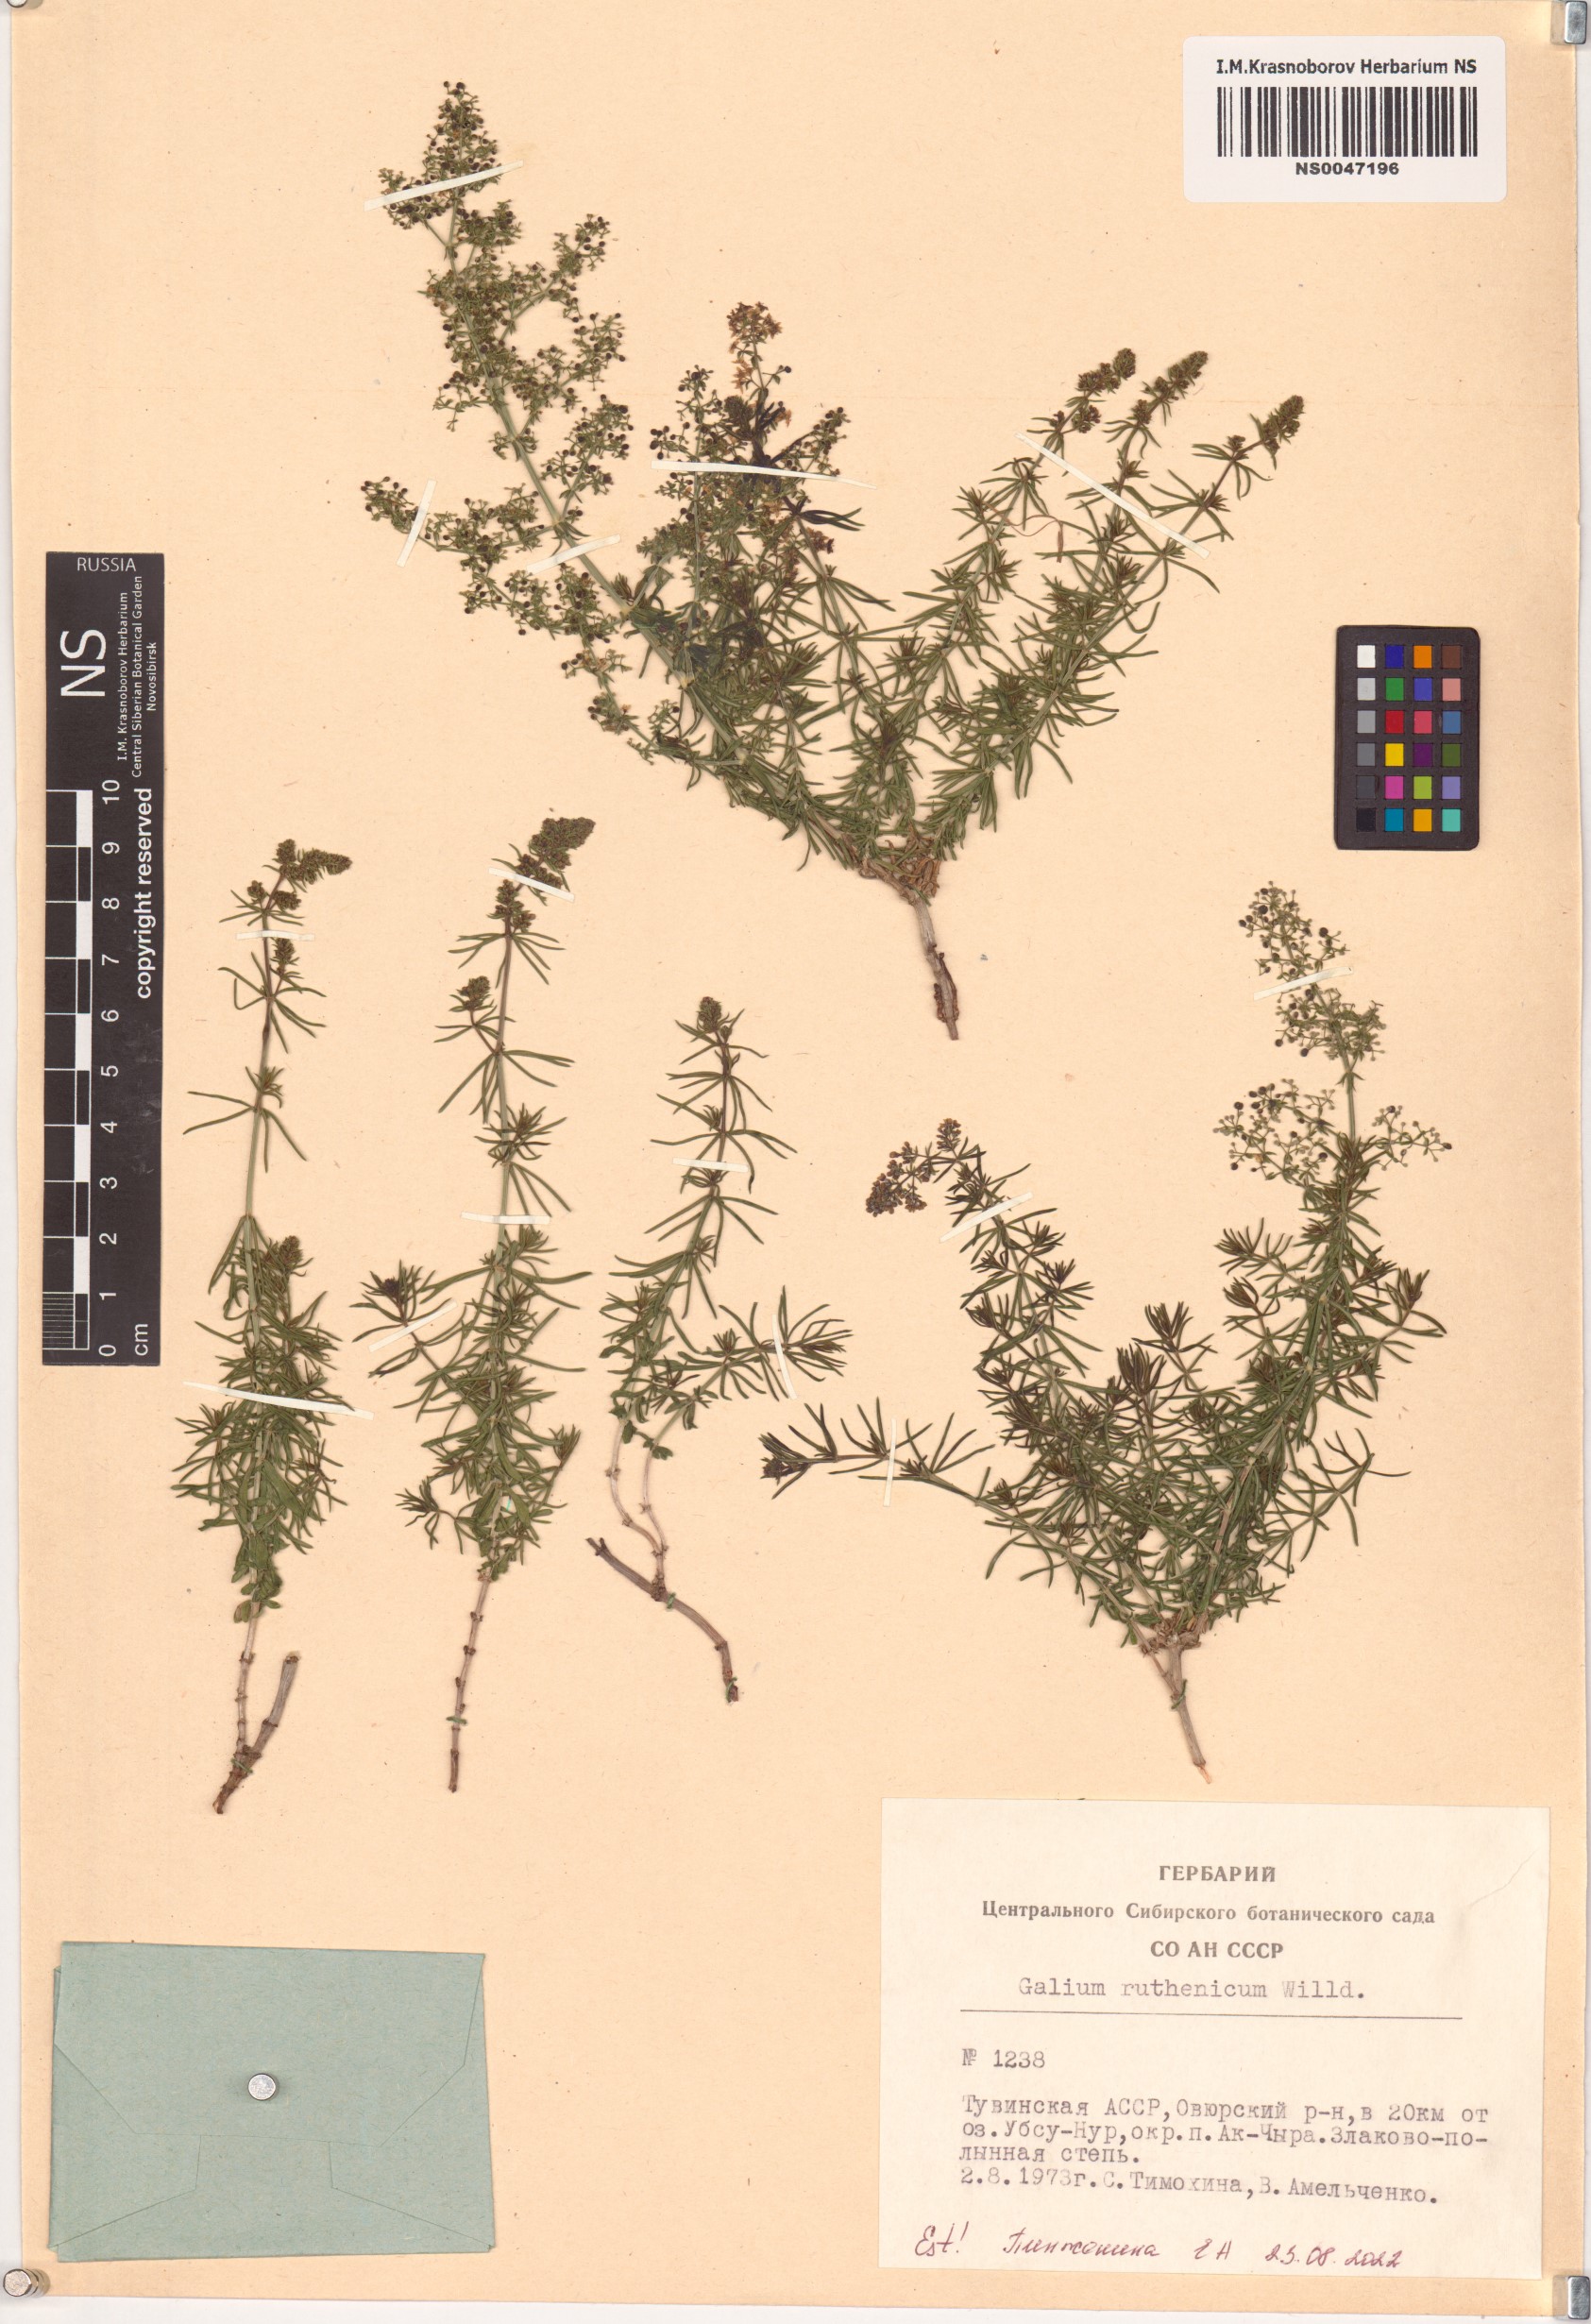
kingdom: Plantae
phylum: Tracheophyta
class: Magnoliopsida
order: Gentianales
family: Rubiaceae
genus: Galium
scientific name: Galium verum
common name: Lady's bedstraw
